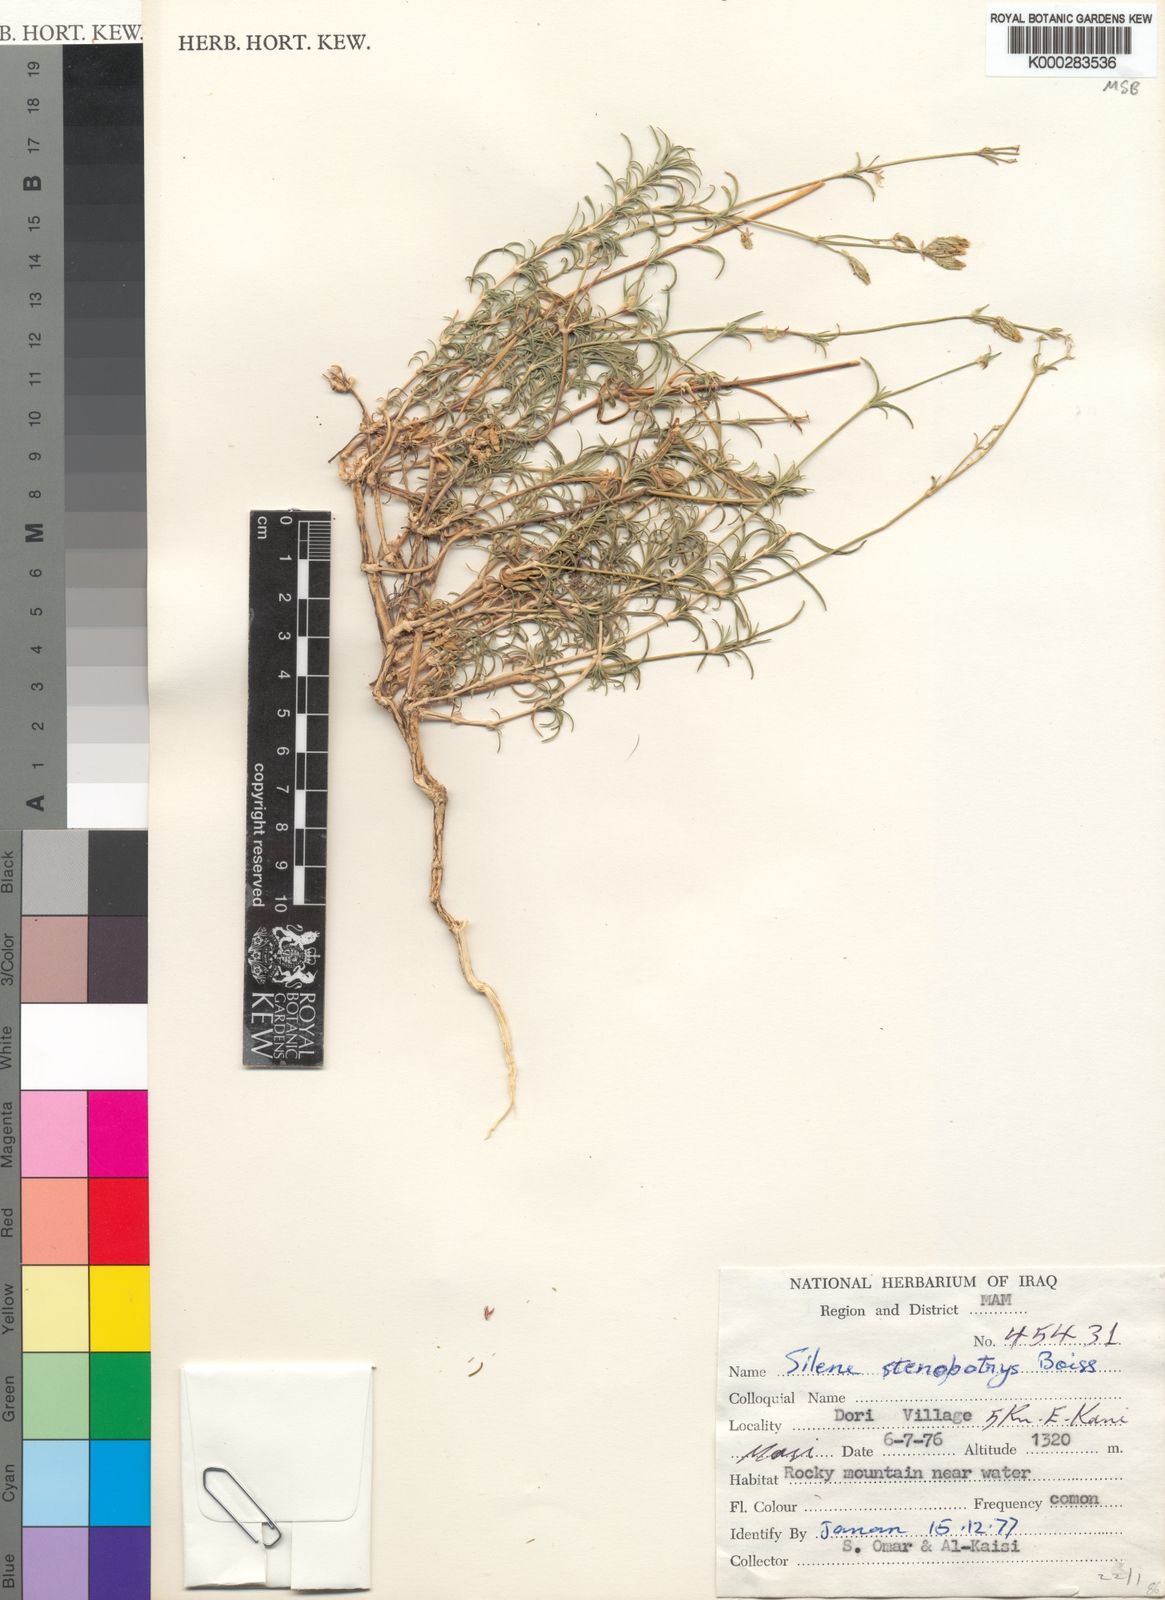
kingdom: Plantae
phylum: Tracheophyta
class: Magnoliopsida
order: Caryophyllales
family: Caryophyllaceae
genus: Silene
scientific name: Silene stenobotrys
